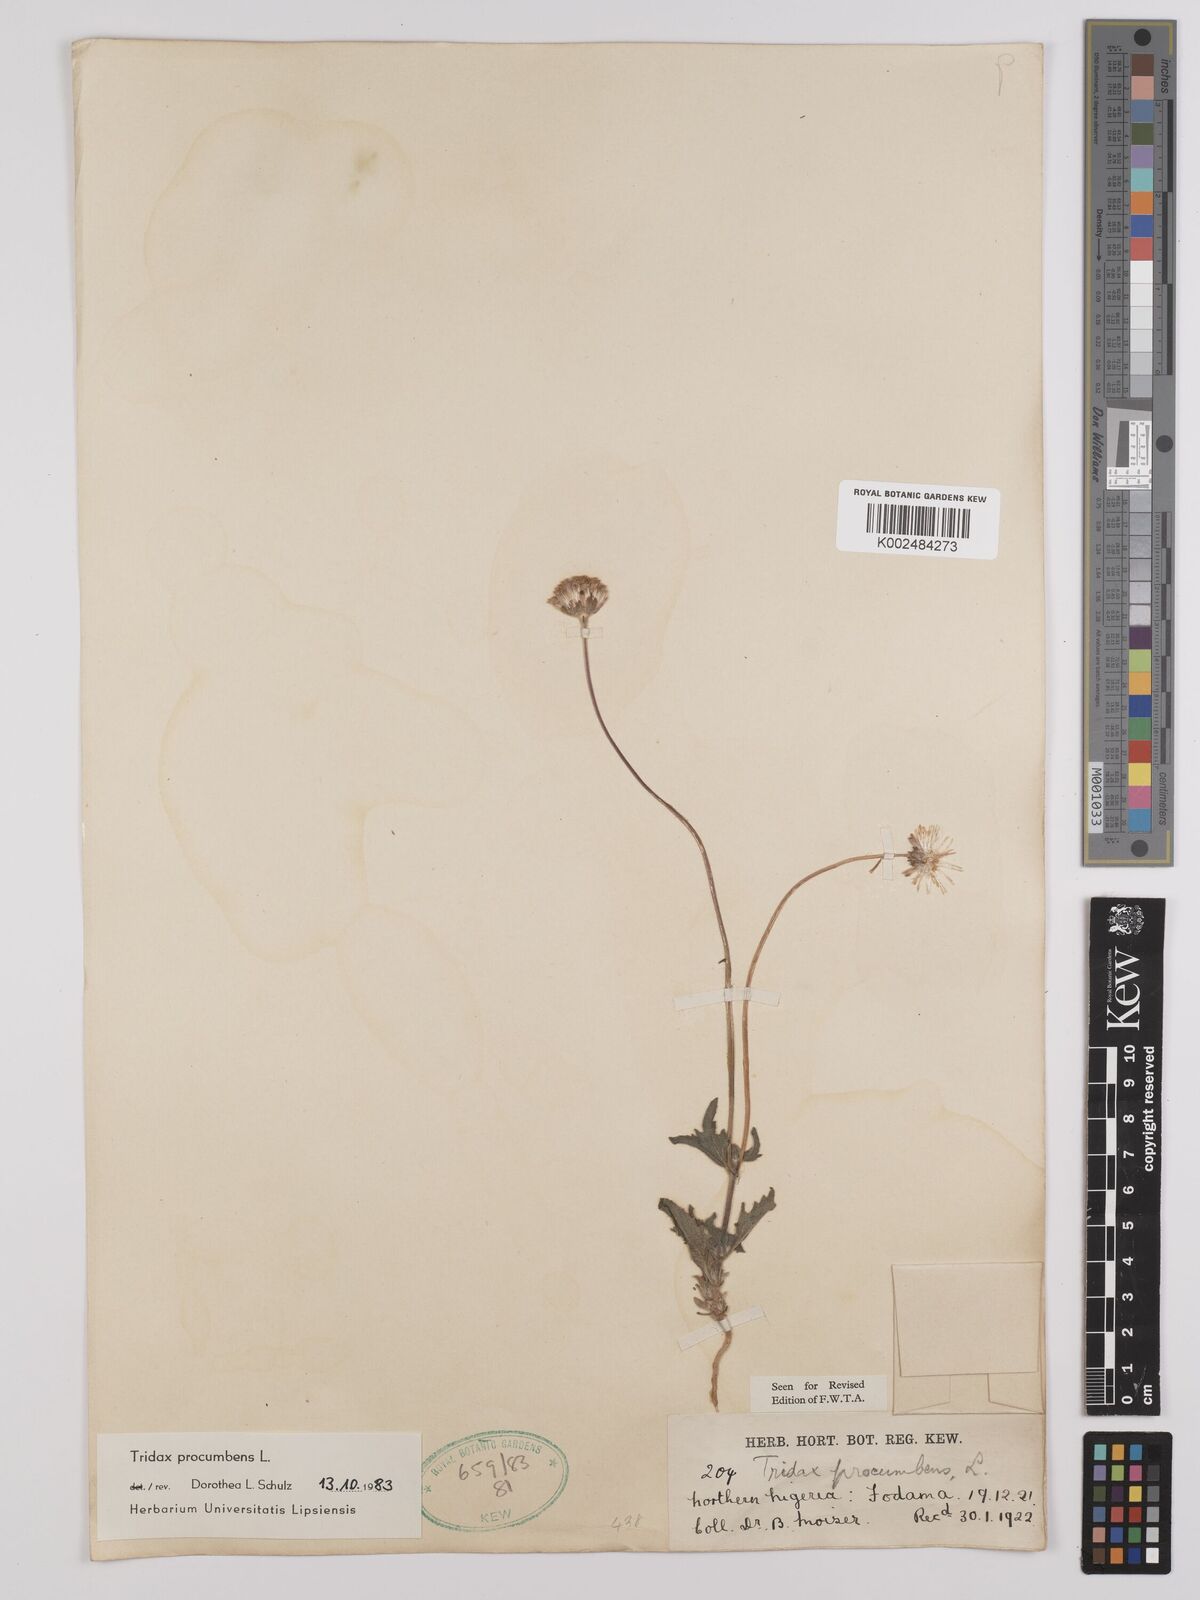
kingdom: Plantae
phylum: Tracheophyta
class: Magnoliopsida
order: Asterales
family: Asteraceae
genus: Tridax
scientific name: Tridax procumbens
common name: Coatbuttons
